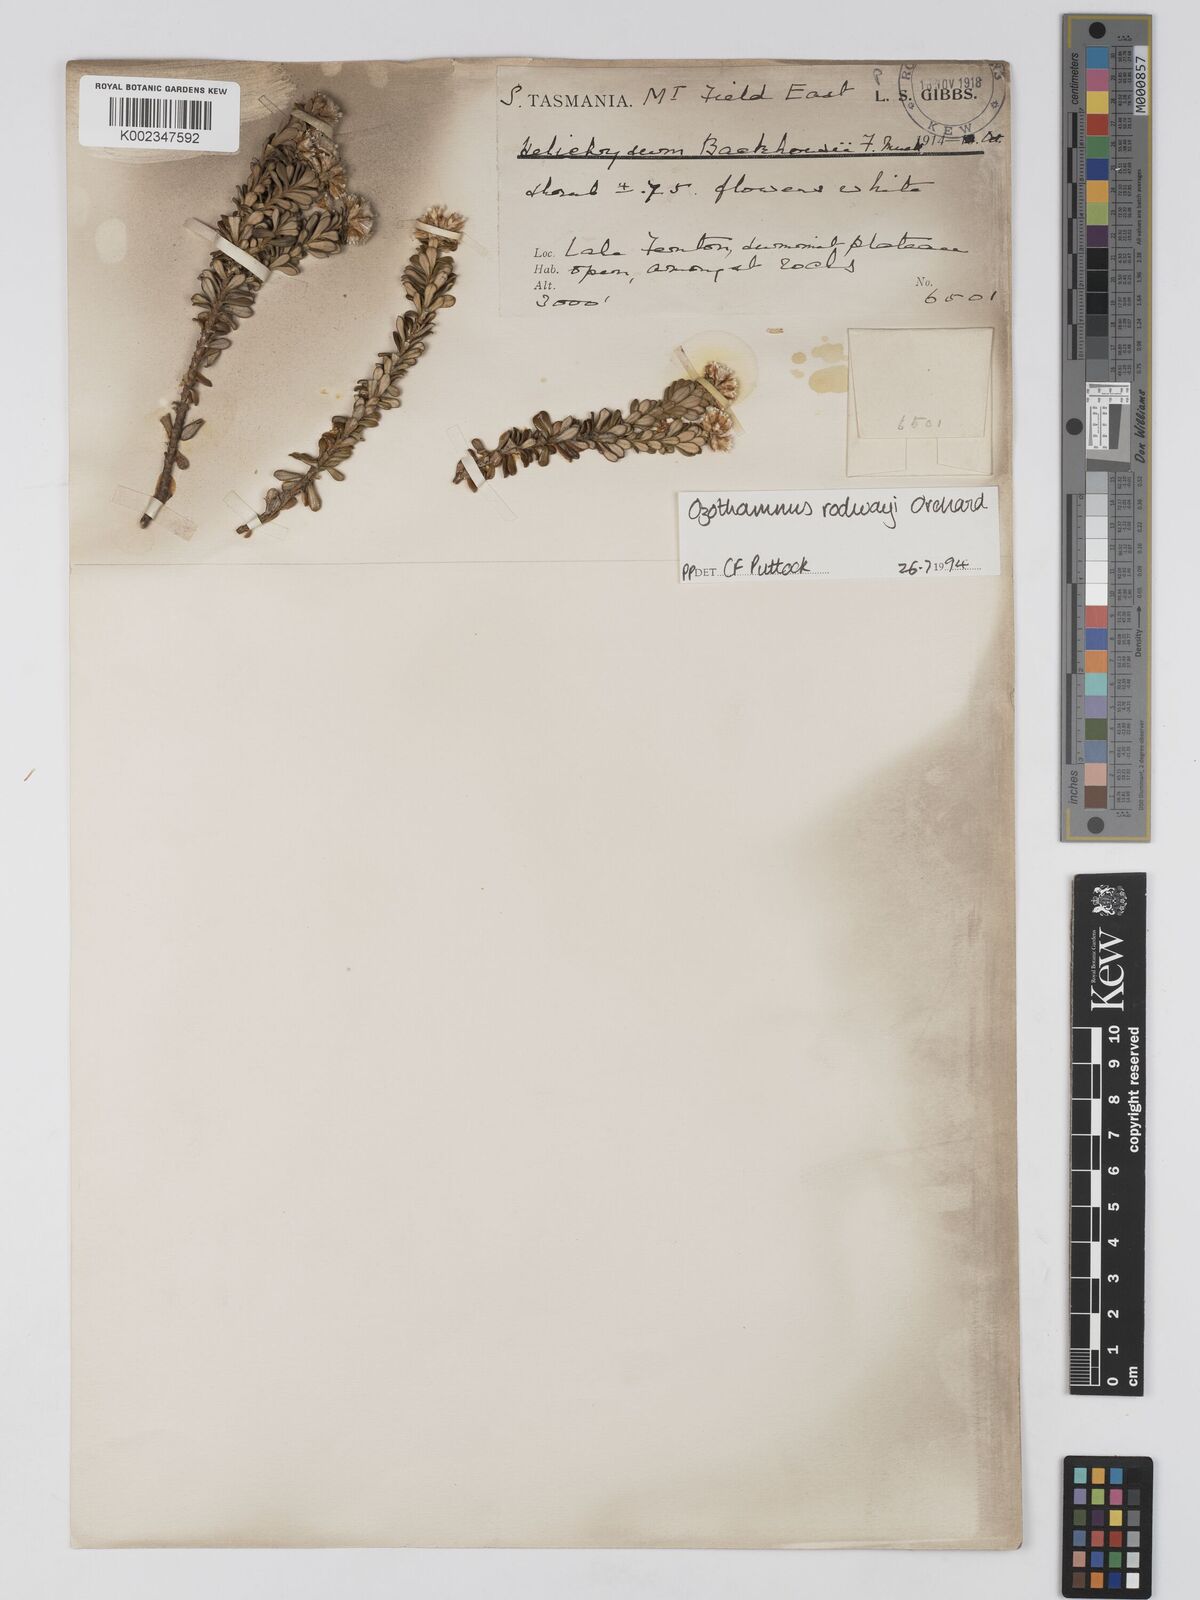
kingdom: Plantae
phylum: Tracheophyta
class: Magnoliopsida
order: Asterales
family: Asteraceae
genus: Ozothamnus
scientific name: Ozothamnus rodwayi
